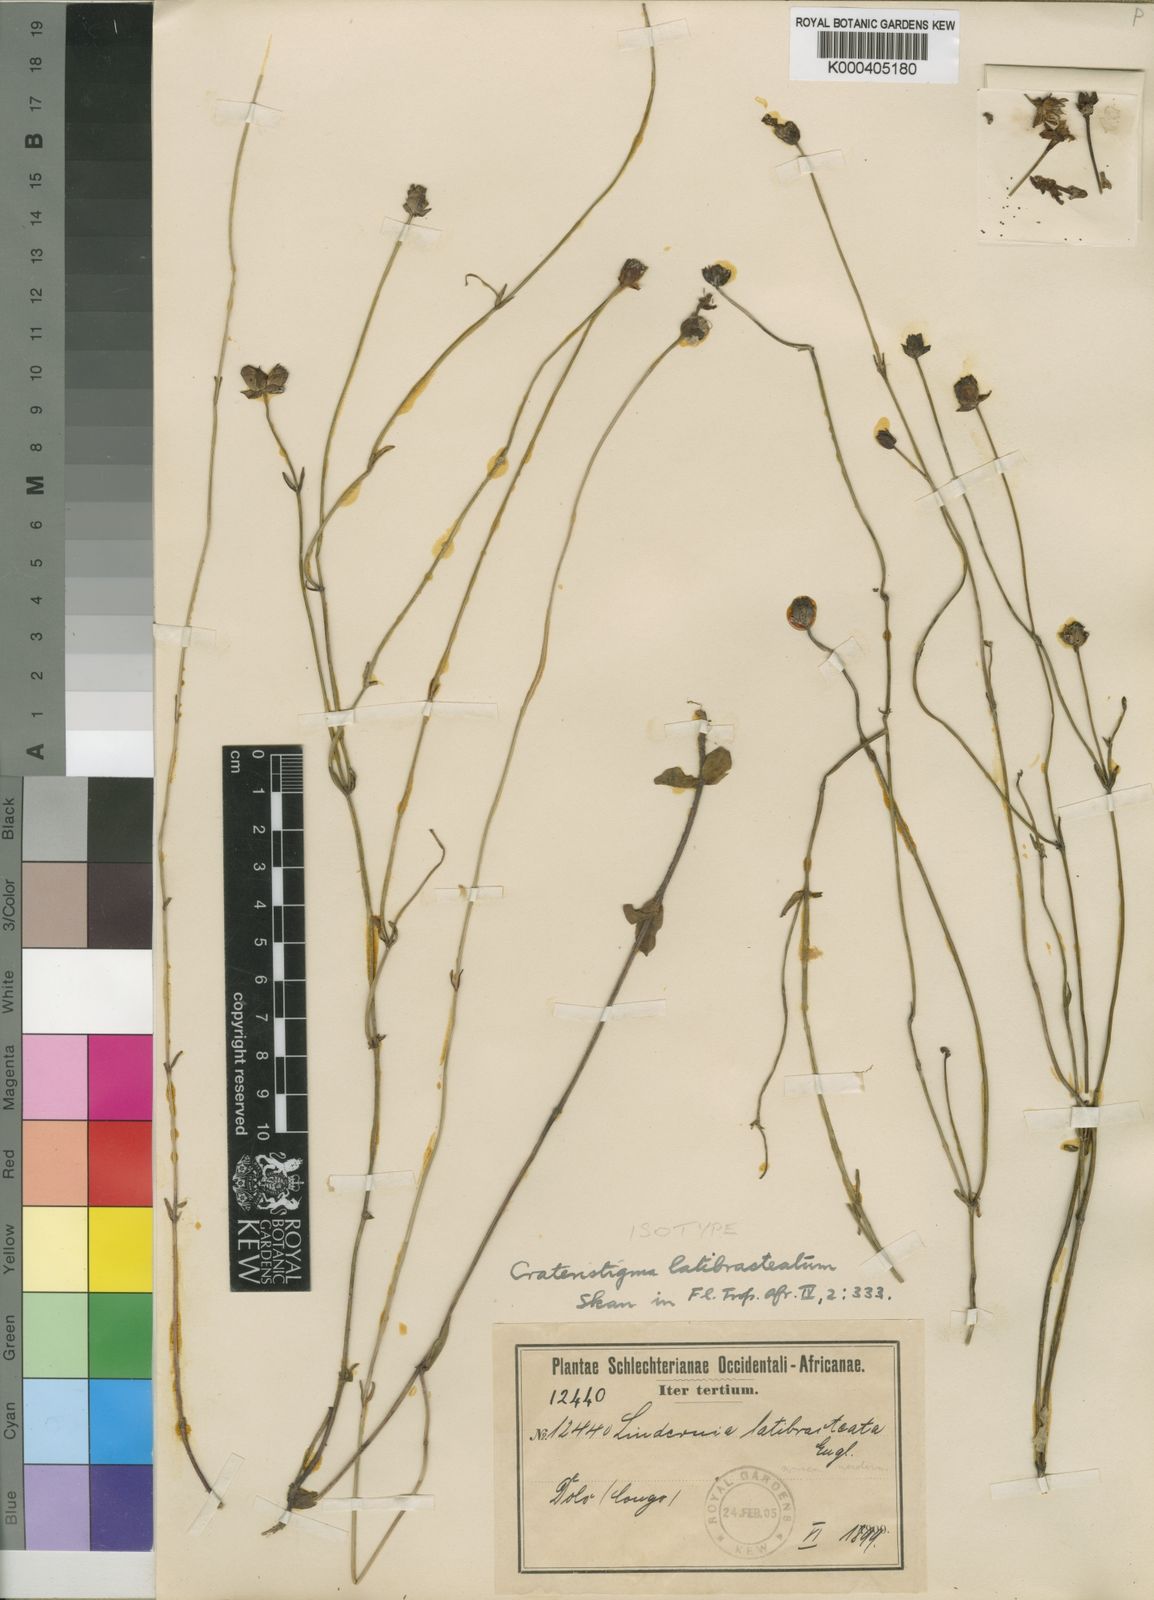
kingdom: Plantae
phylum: Tracheophyta
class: Magnoliopsida
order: Lamiales
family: Linderniaceae
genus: Crepidorhopalon
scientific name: Crepidorhopalon latibracteatus
